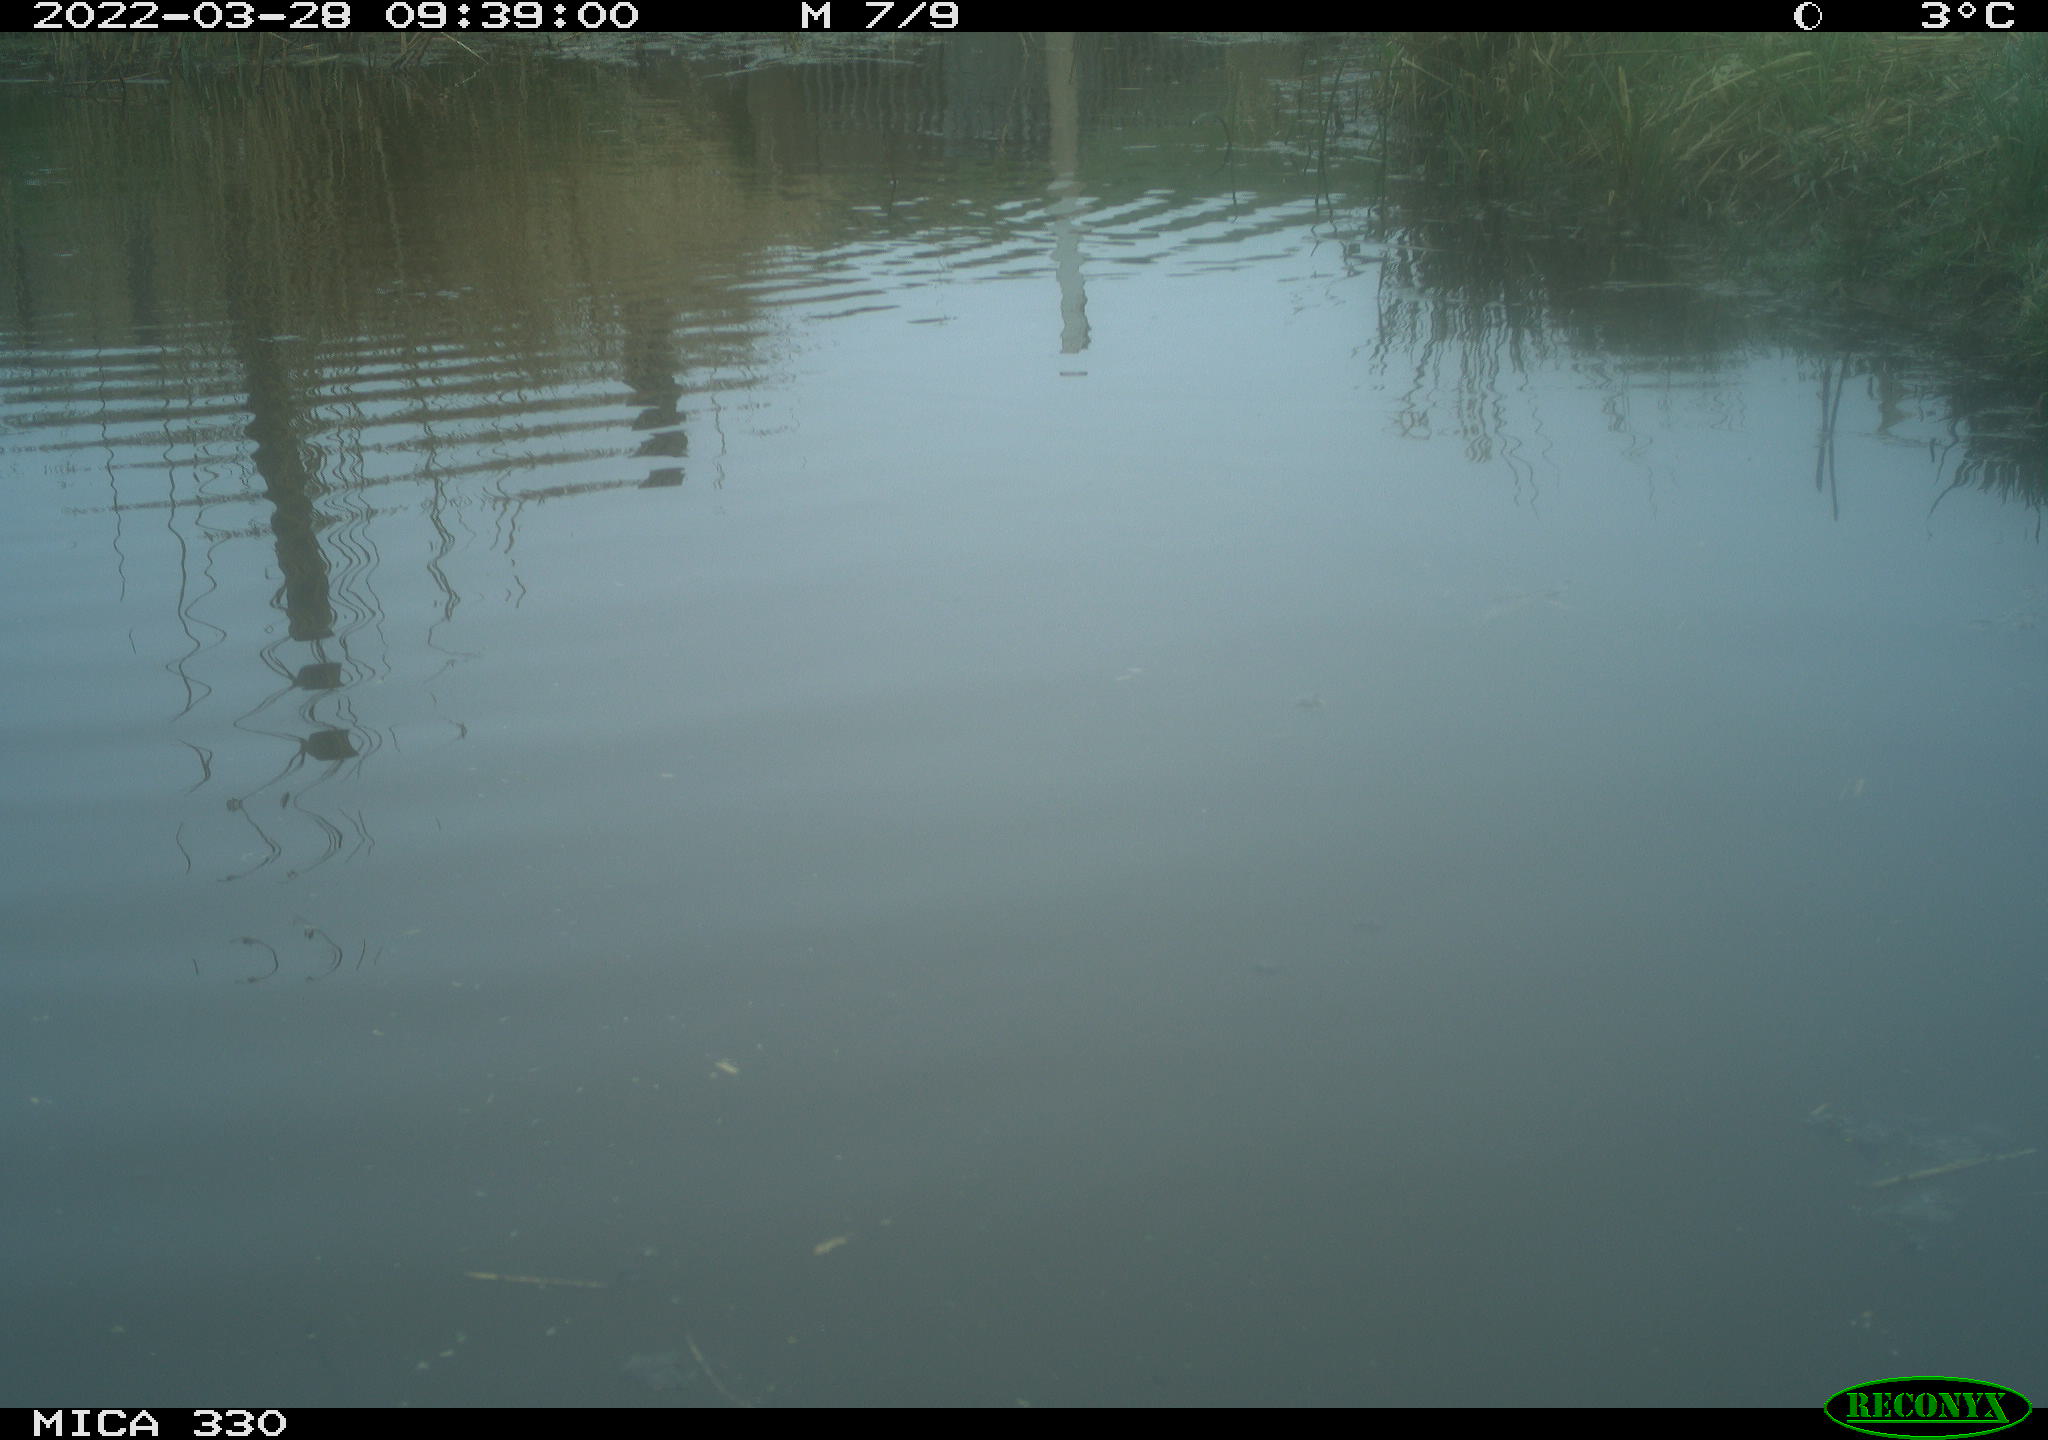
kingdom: Animalia
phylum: Chordata
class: Aves
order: Anseriformes
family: Anatidae
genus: Anas
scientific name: Anas platyrhynchos
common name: Mallard
